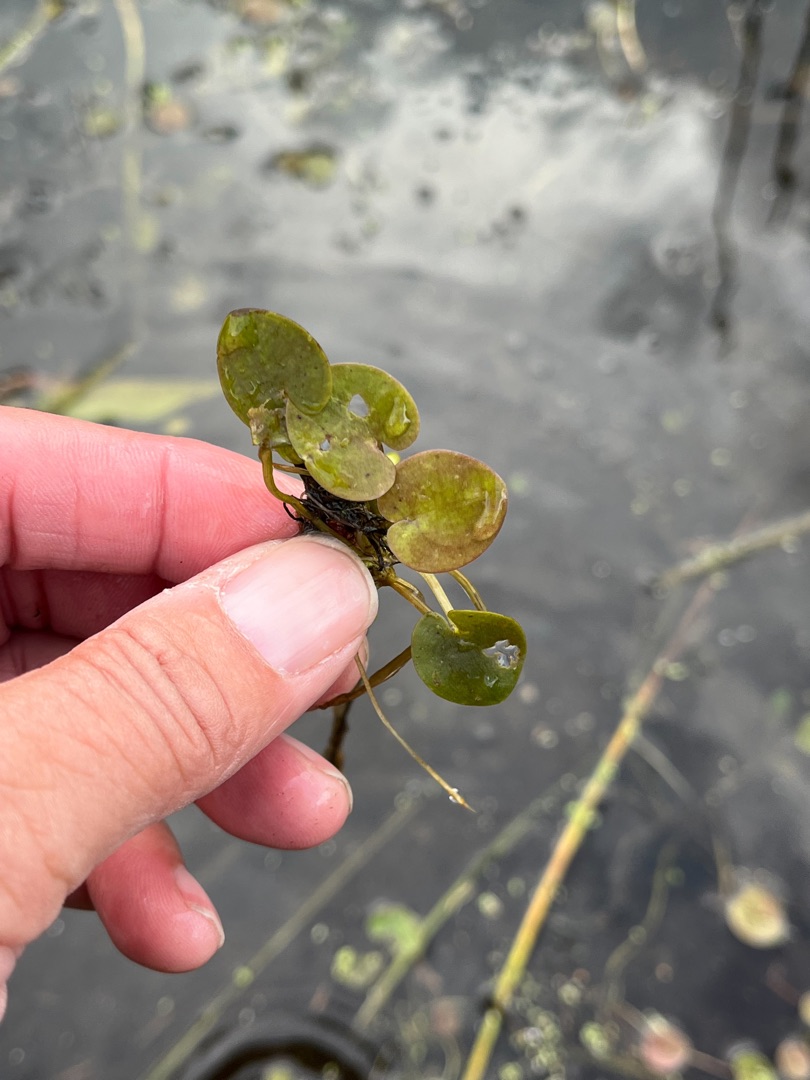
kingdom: Plantae
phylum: Tracheophyta
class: Liliopsida
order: Alismatales
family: Hydrocharitaceae
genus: Hydrocharis
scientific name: Hydrocharis morsus-ranae
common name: Frøbid
